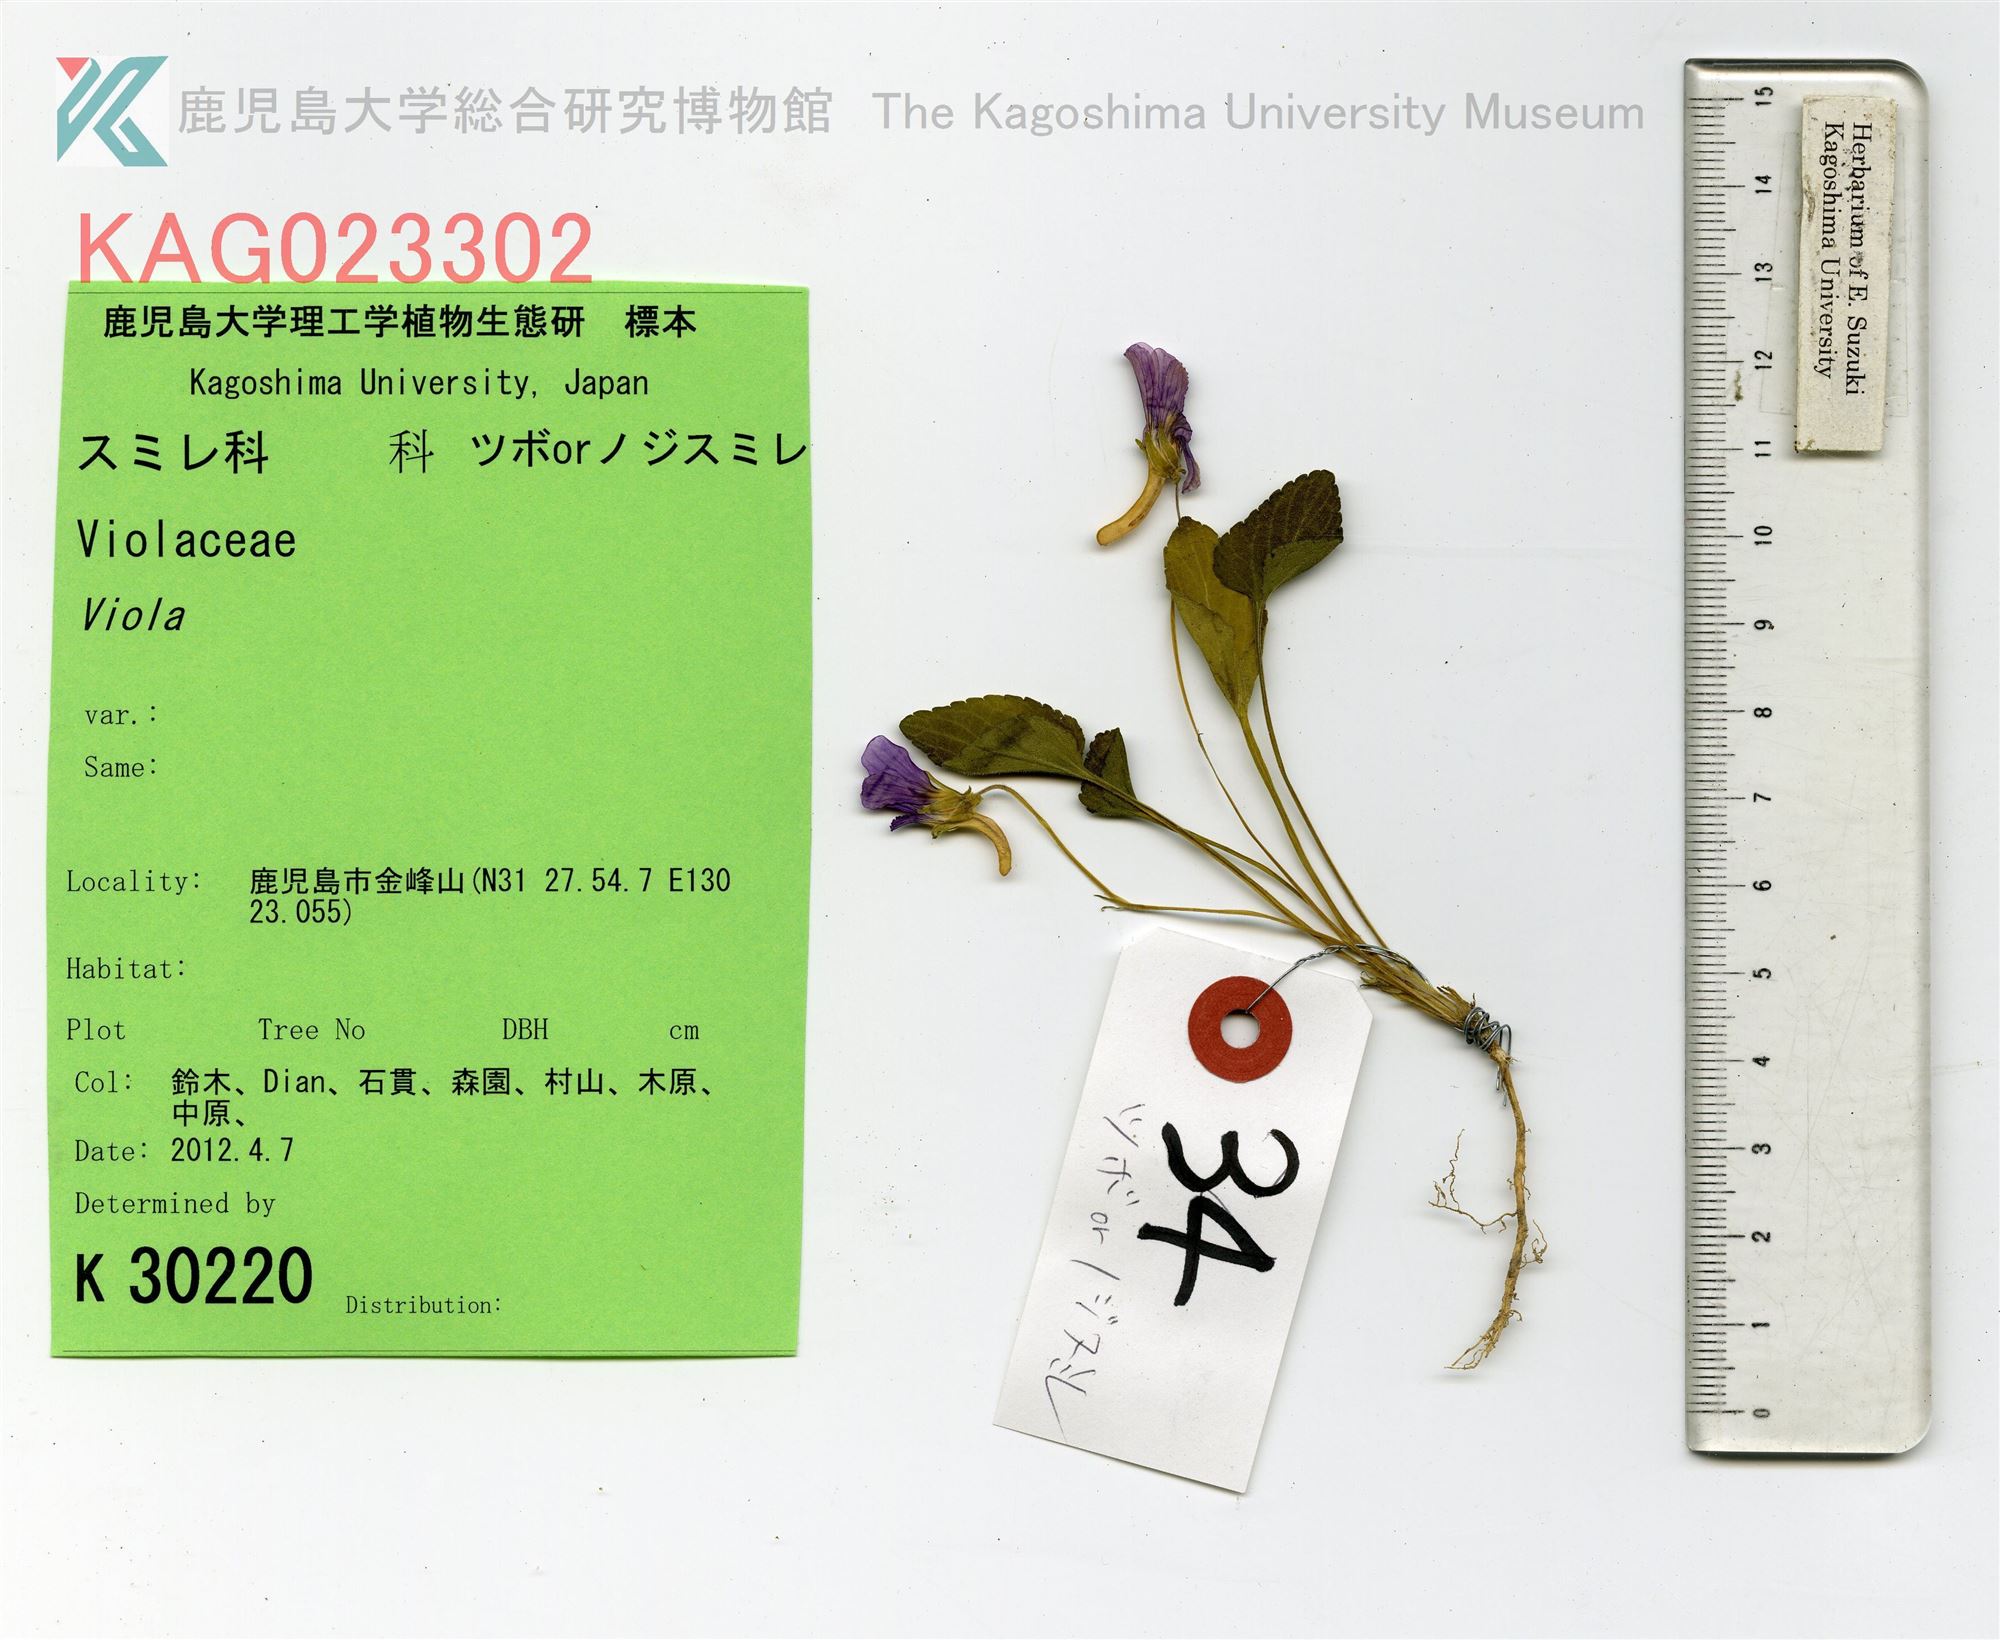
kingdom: Plantae
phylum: Tracheophyta
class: Magnoliopsida
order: Malpighiales
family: Violaceae
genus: Viola
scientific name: Viola phalacrocarpa
